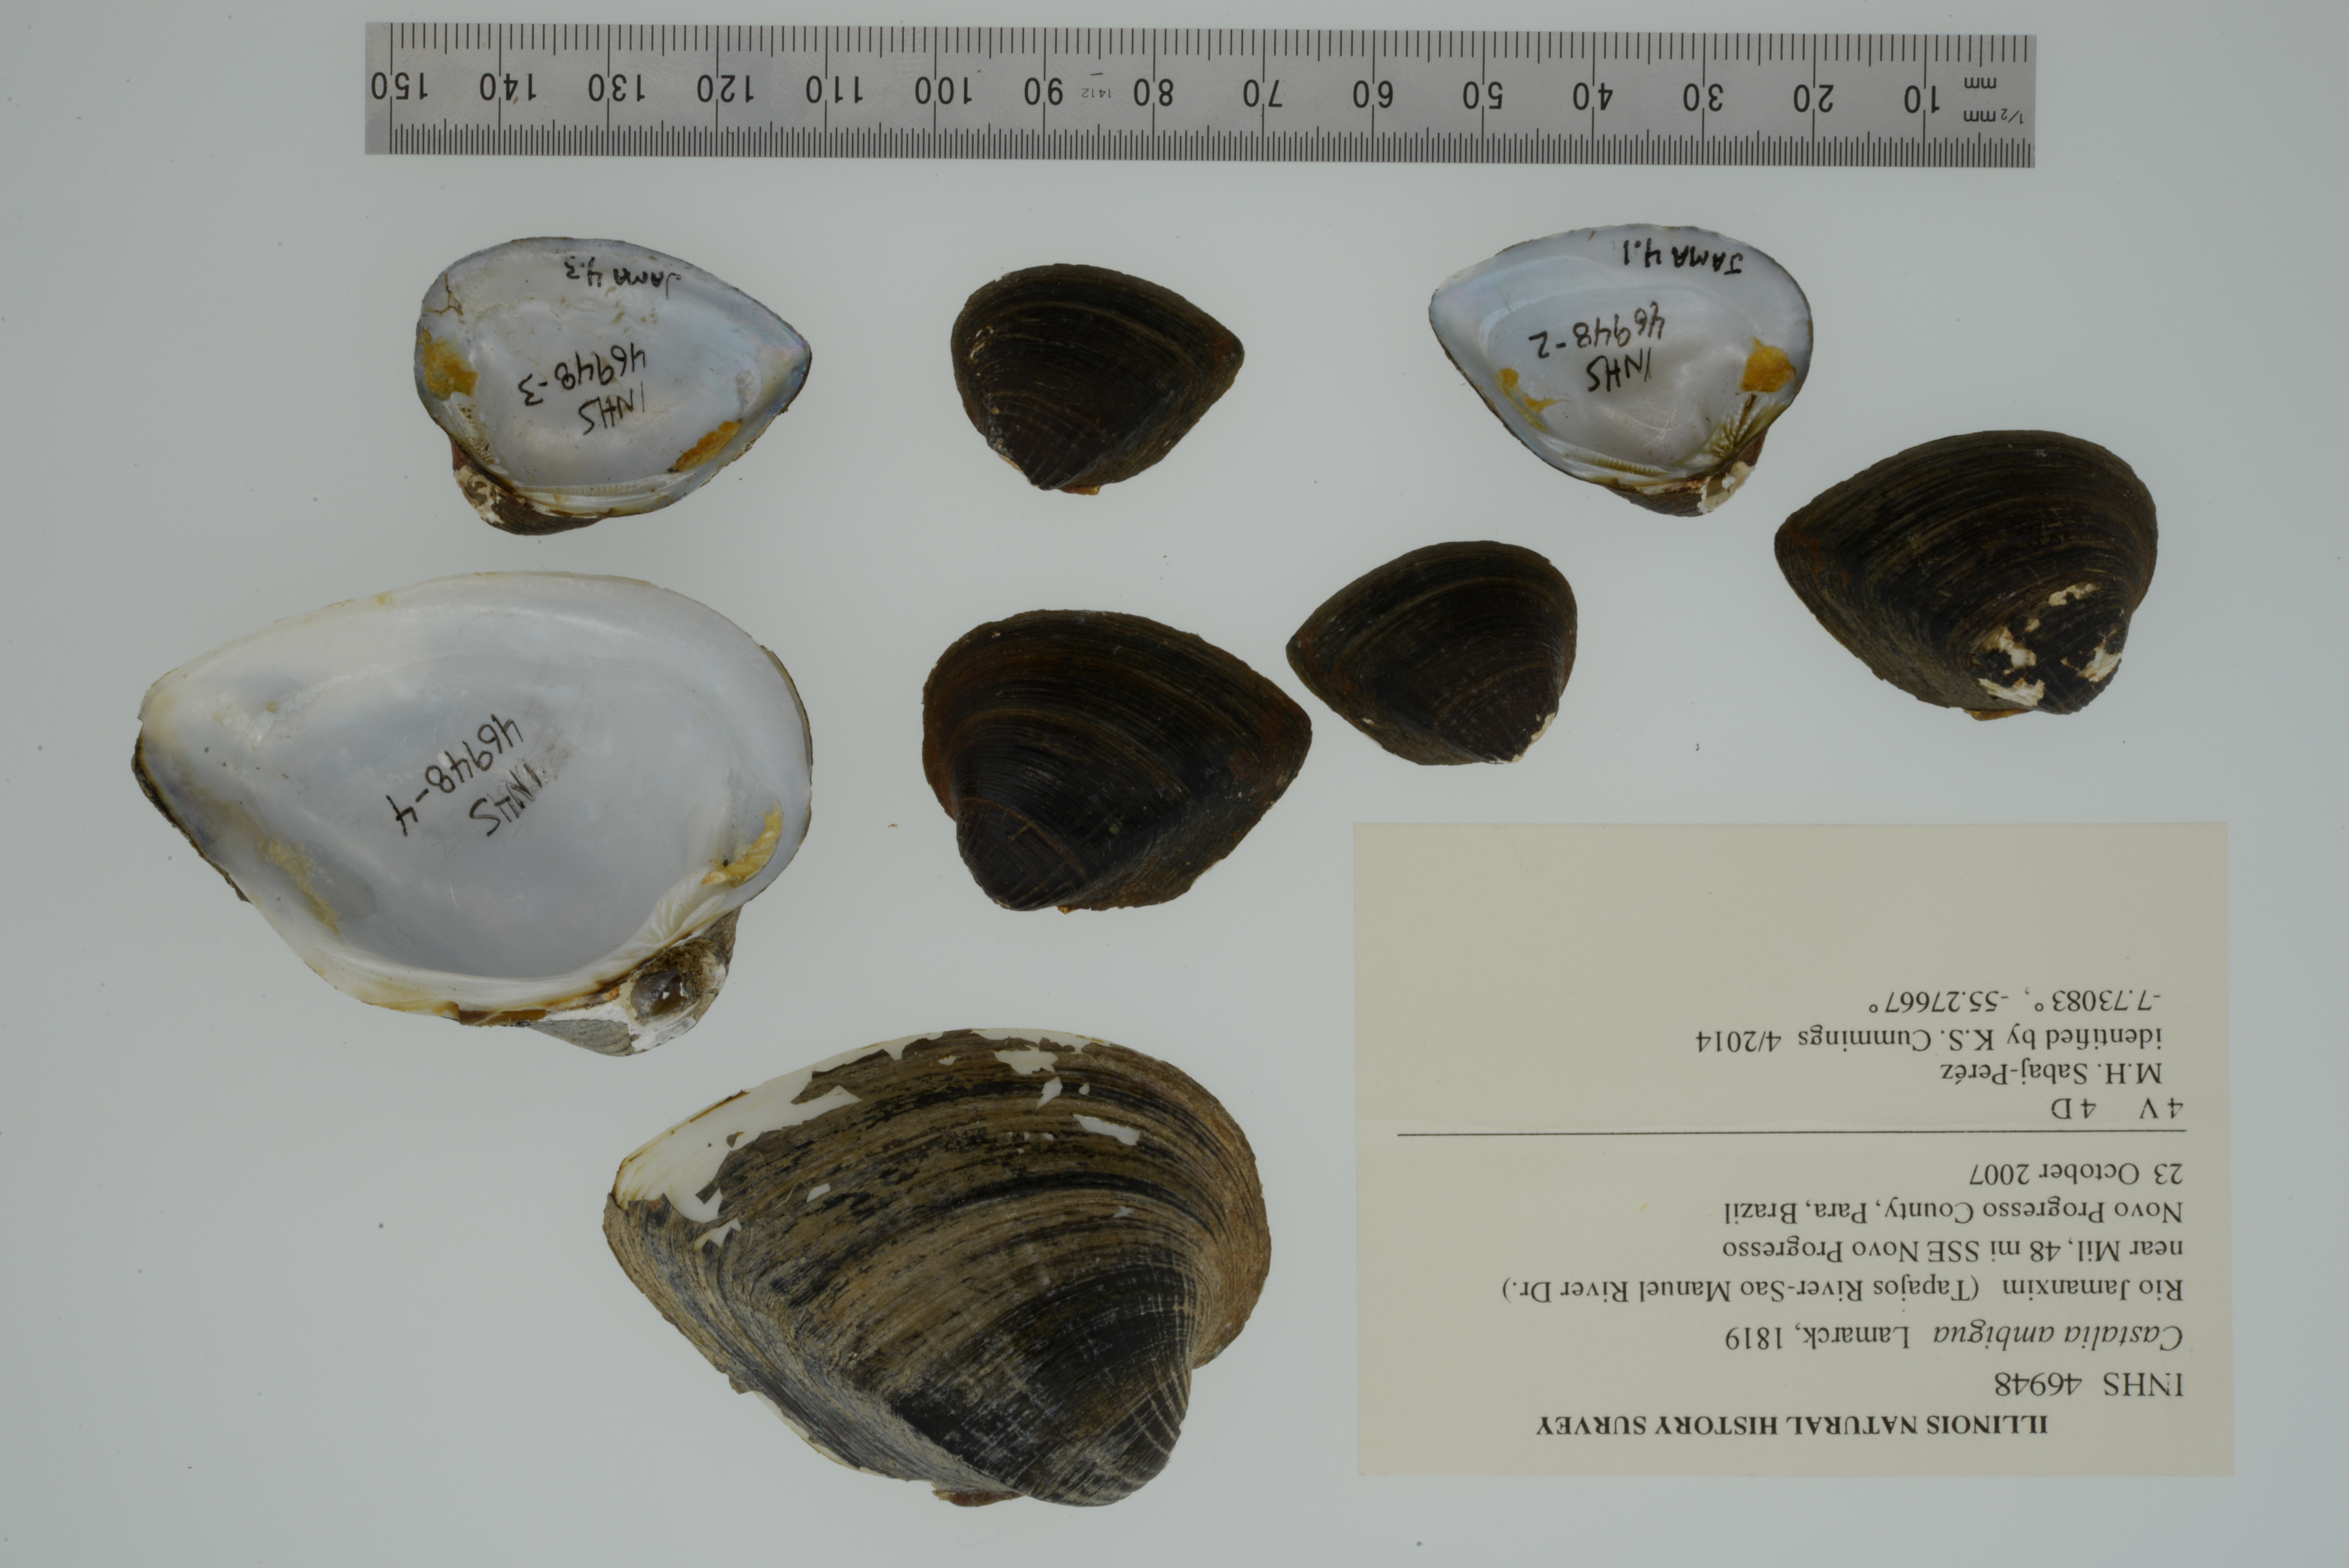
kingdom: Animalia
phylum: Mollusca
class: Bivalvia
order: Unionida
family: Hyriidae
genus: Castalia
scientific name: Castalia ambigua
